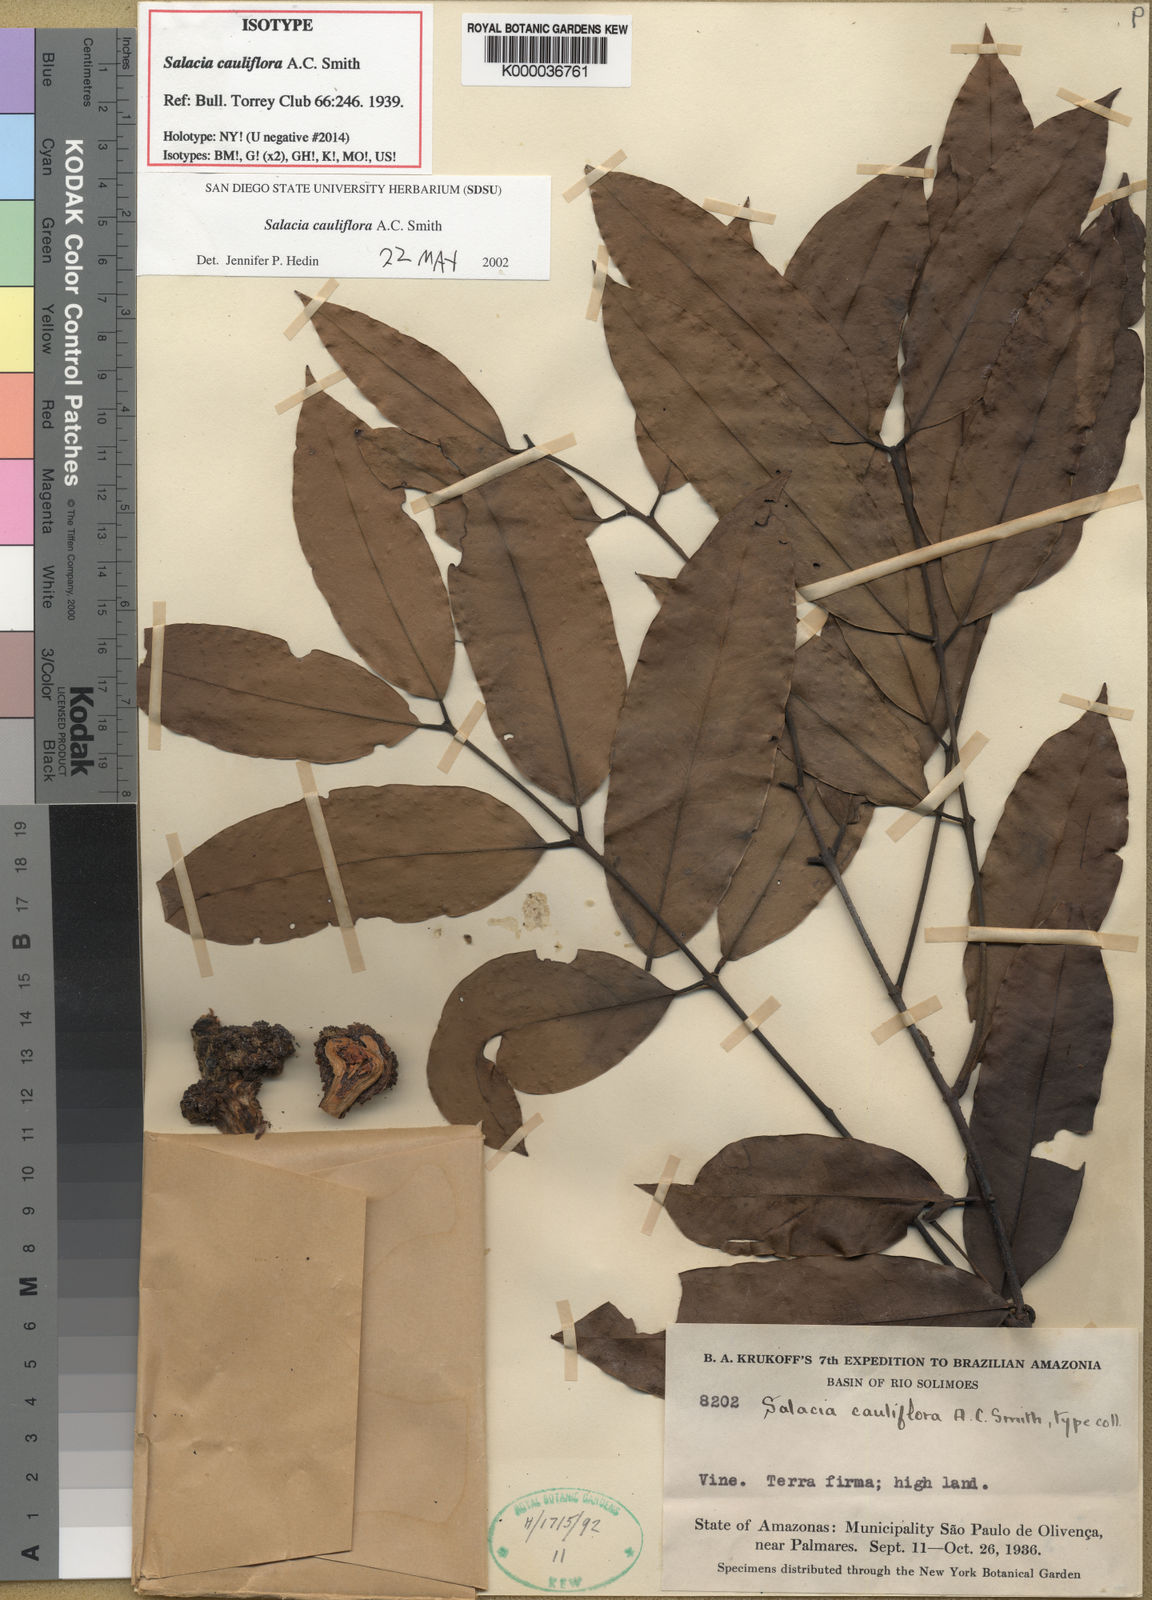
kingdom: Plantae
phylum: Tracheophyta
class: Magnoliopsida
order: Celastrales
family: Celastraceae
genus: Salacia
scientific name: Salacia cauliflora
